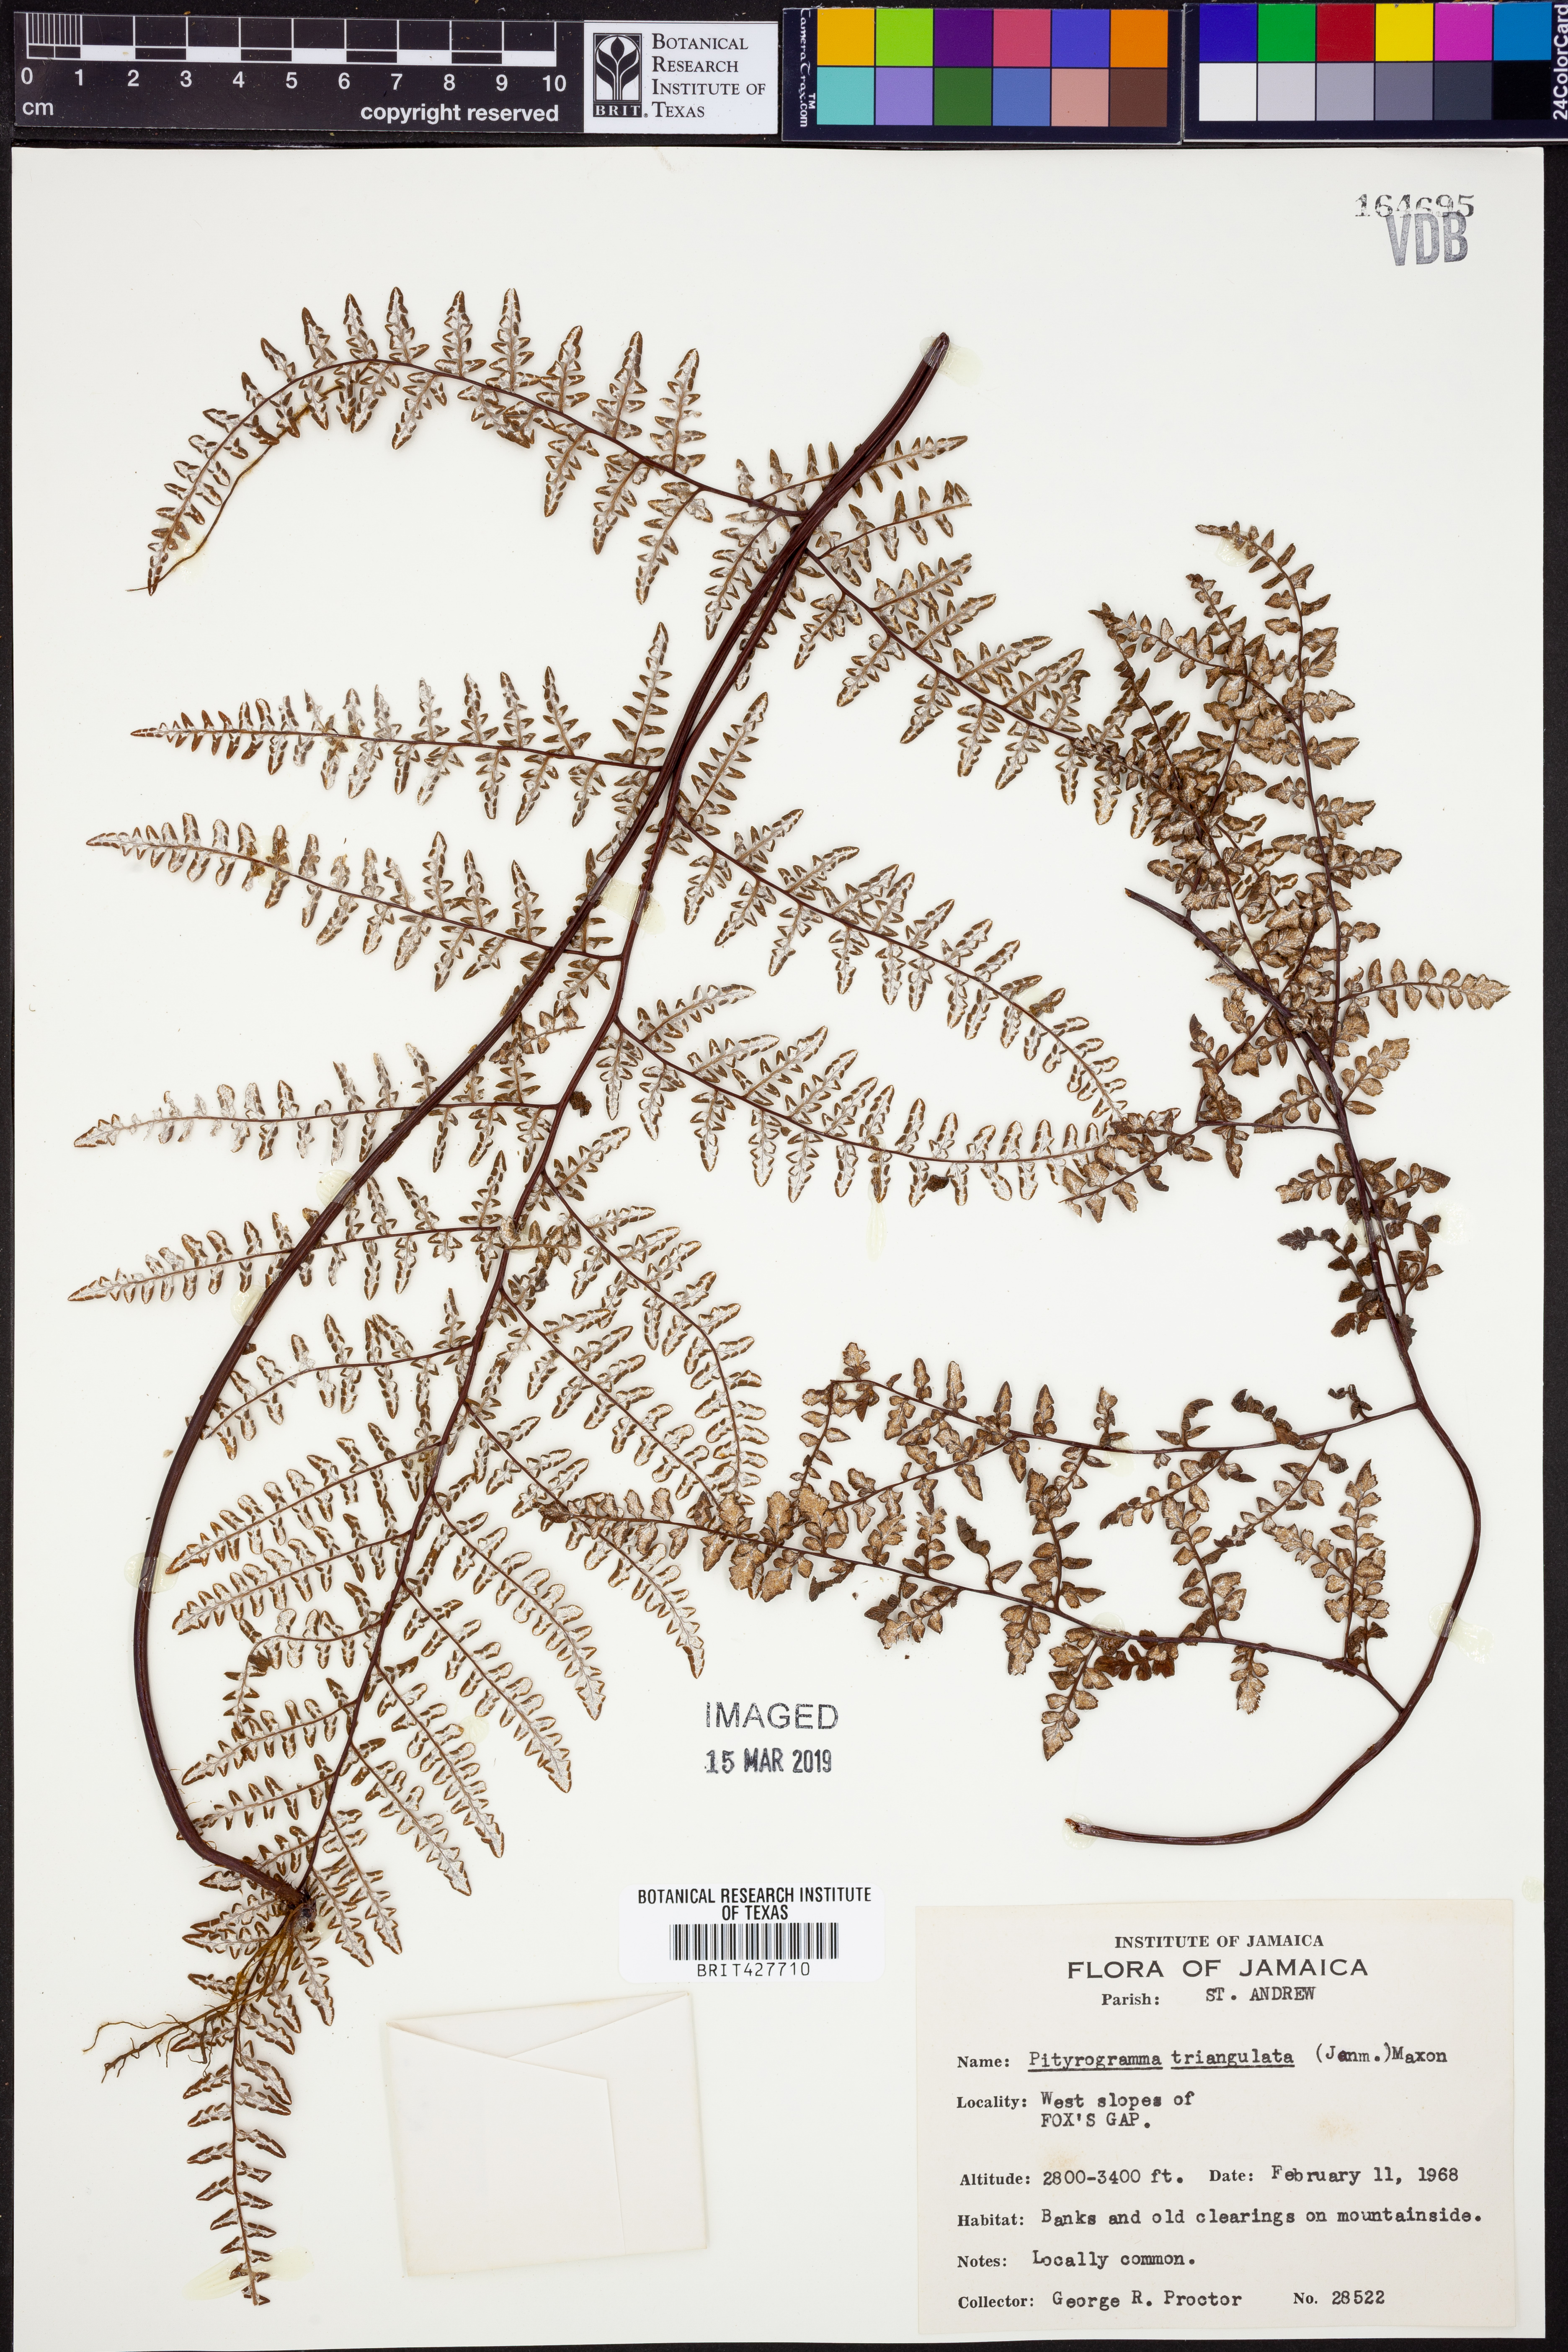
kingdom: Plantae
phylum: Tracheophyta
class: Polypodiopsida
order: Polypodiales
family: Pteridaceae
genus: Pityrogramma
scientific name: Pityrogramma triangulata
